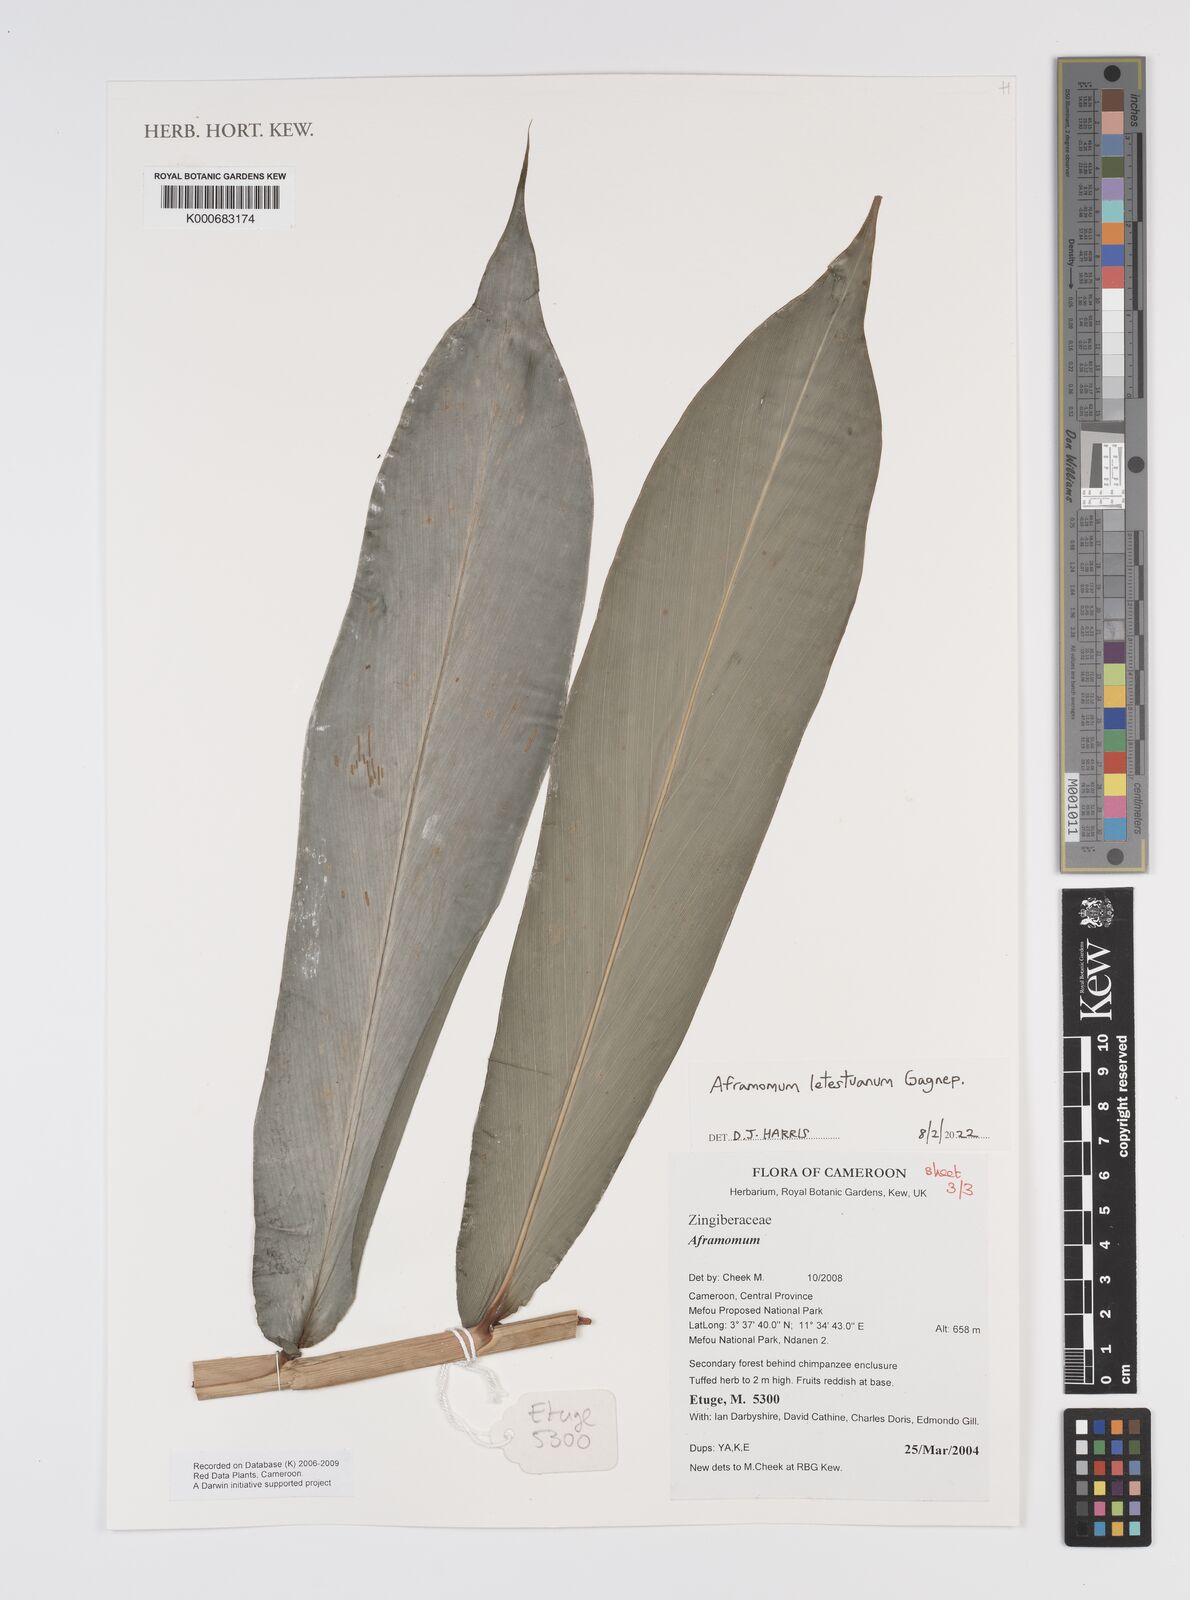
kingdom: Plantae
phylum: Tracheophyta
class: Liliopsida
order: Zingiberales
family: Zingiberaceae
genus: Aframomum
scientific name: Aframomum
